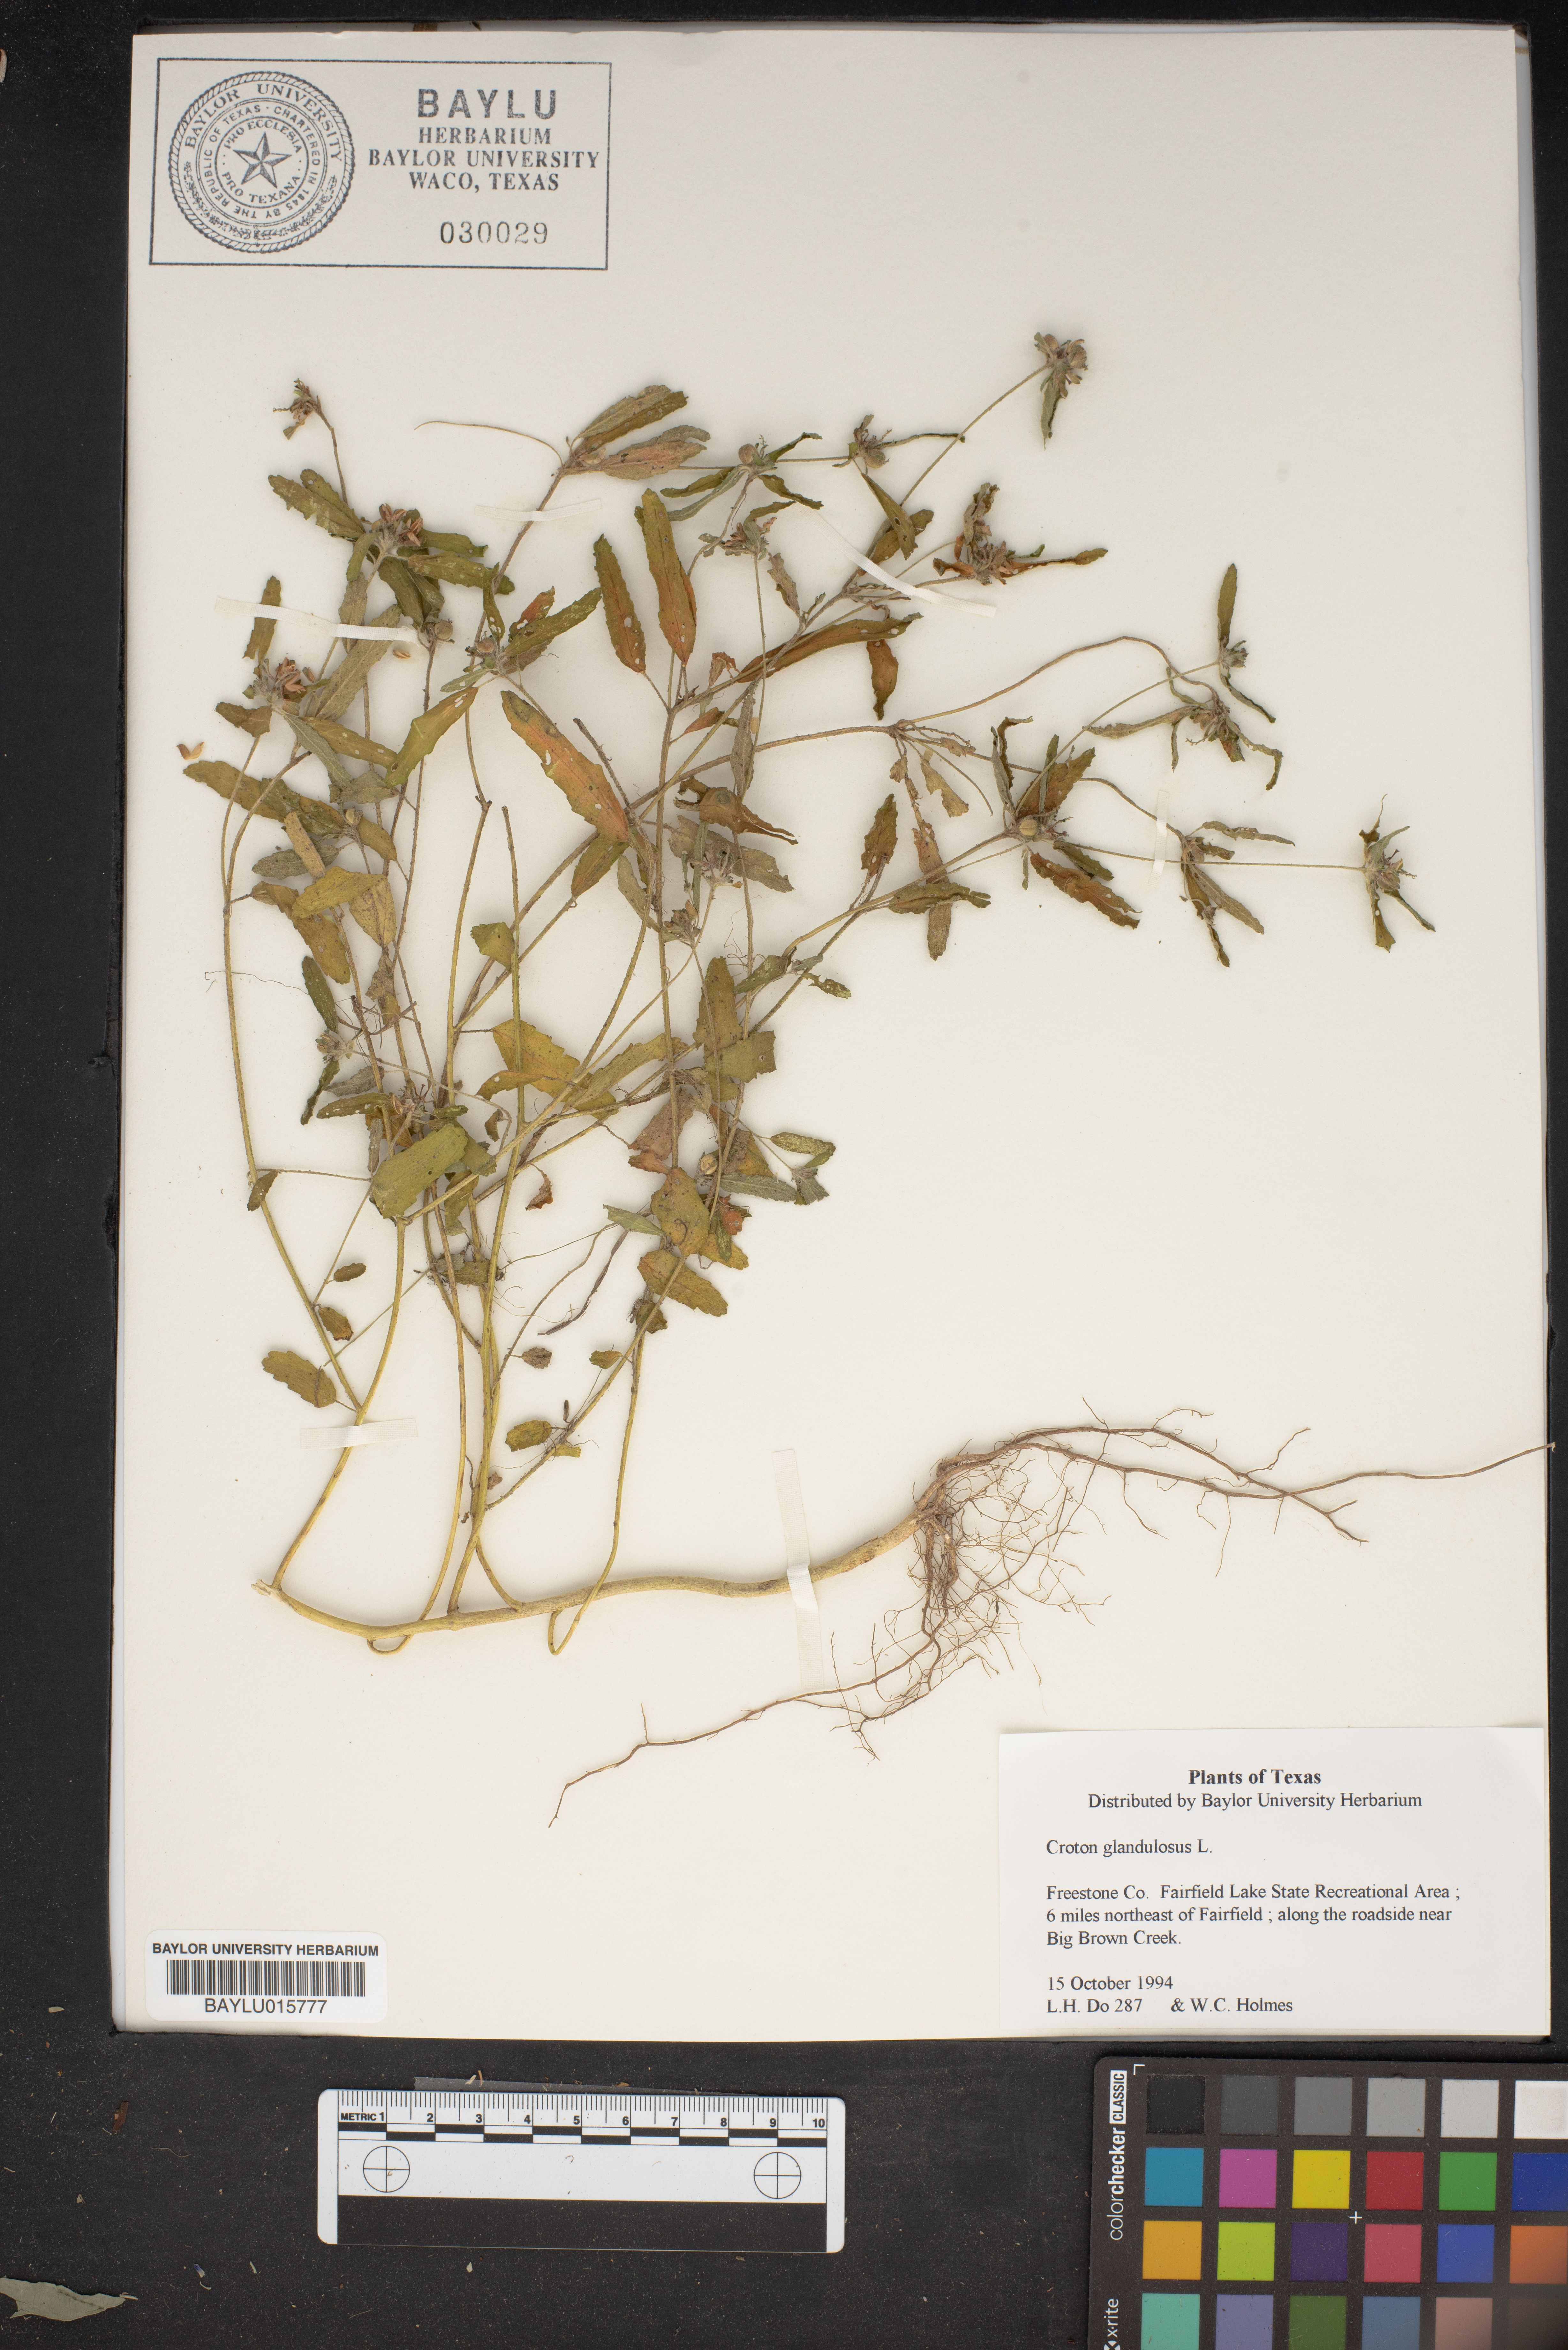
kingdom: Plantae
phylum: Tracheophyta
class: Magnoliopsida
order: Malpighiales
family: Euphorbiaceae
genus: Croton
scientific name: Croton glandulosus
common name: Tropic croton
